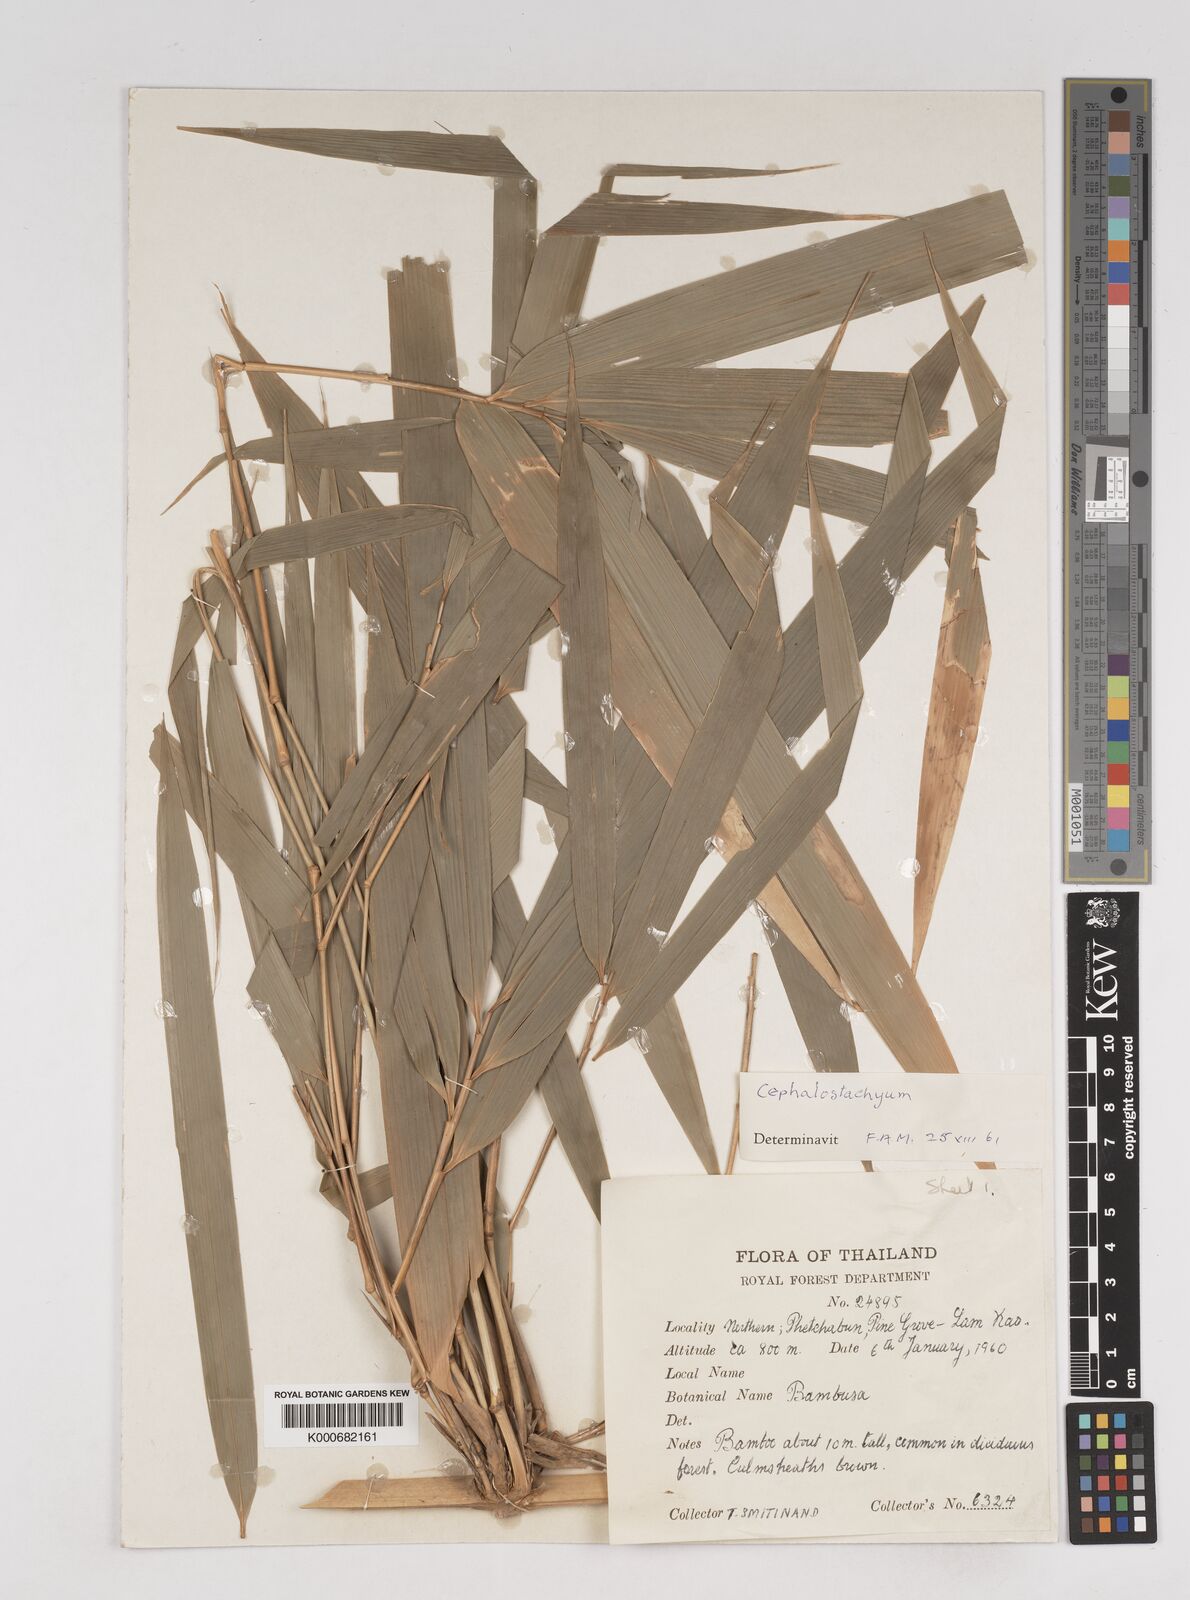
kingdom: Plantae
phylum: Tracheophyta
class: Liliopsida
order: Poales
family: Poaceae
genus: Cephalostachyum
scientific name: Cephalostachyum
